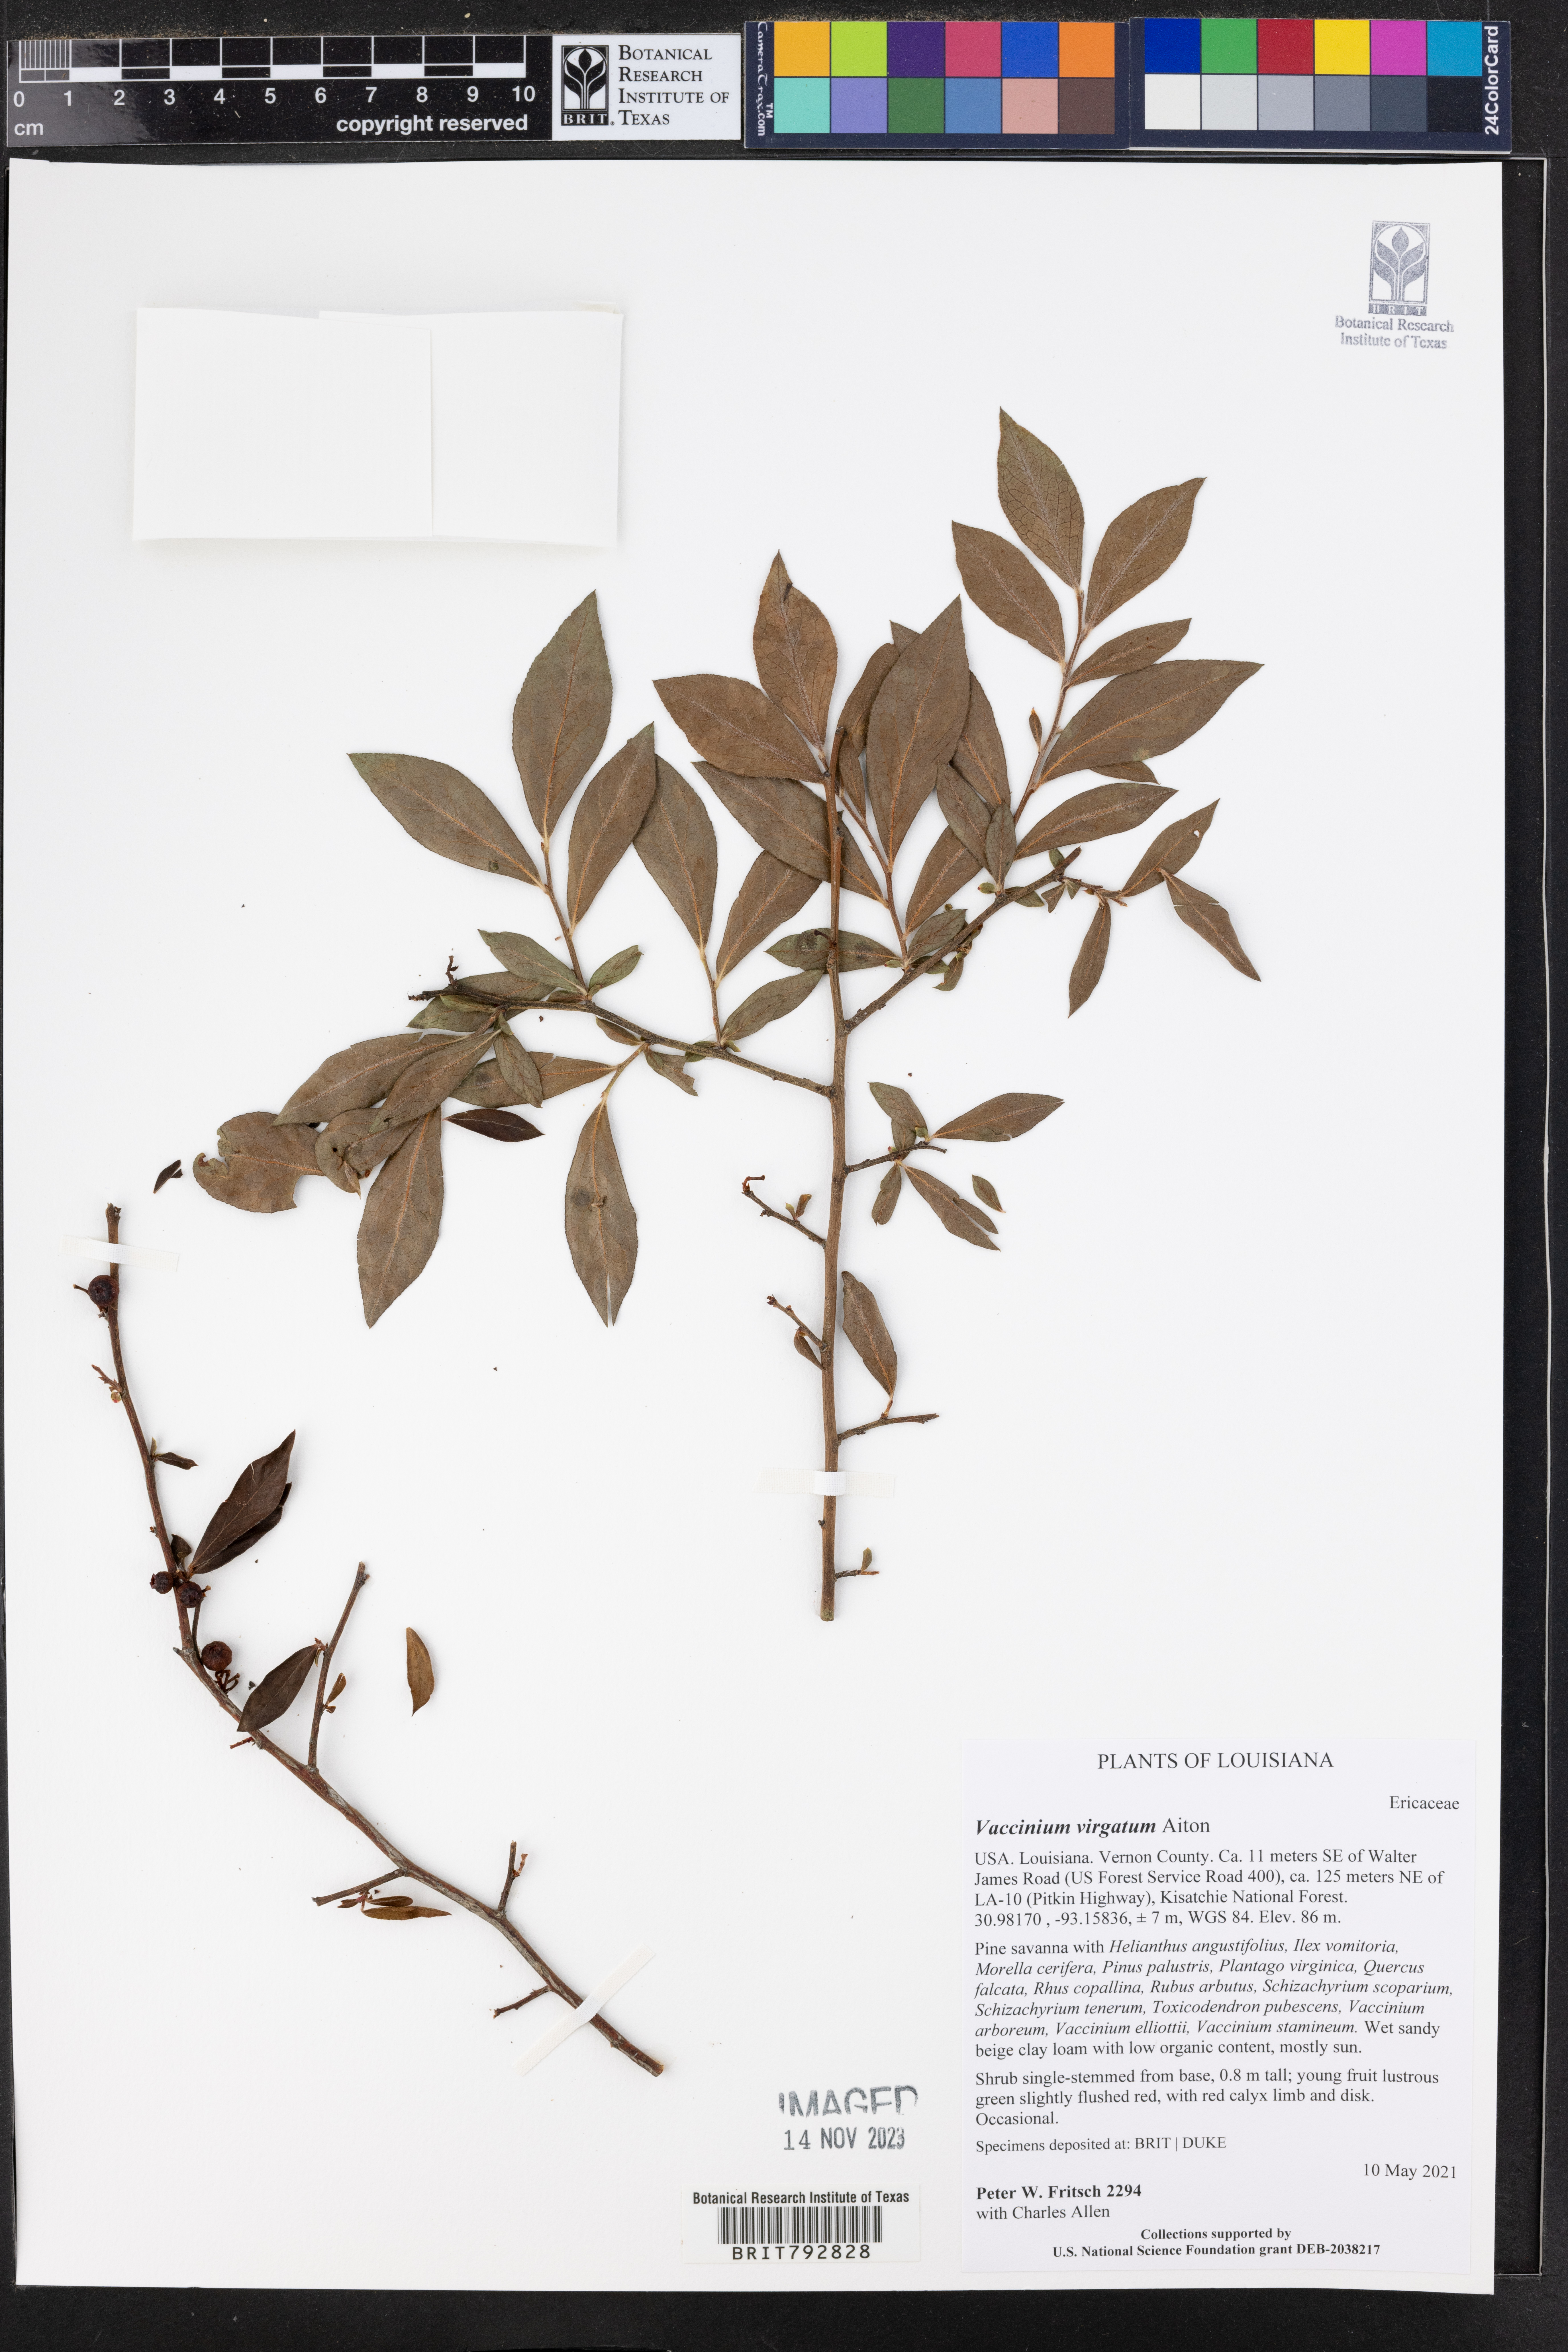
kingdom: Plantae
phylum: Tracheophyta
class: Magnoliopsida
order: Ericales
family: Ericaceae
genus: Vaccinium
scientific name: Vaccinium corymbosum
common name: Blueberry
